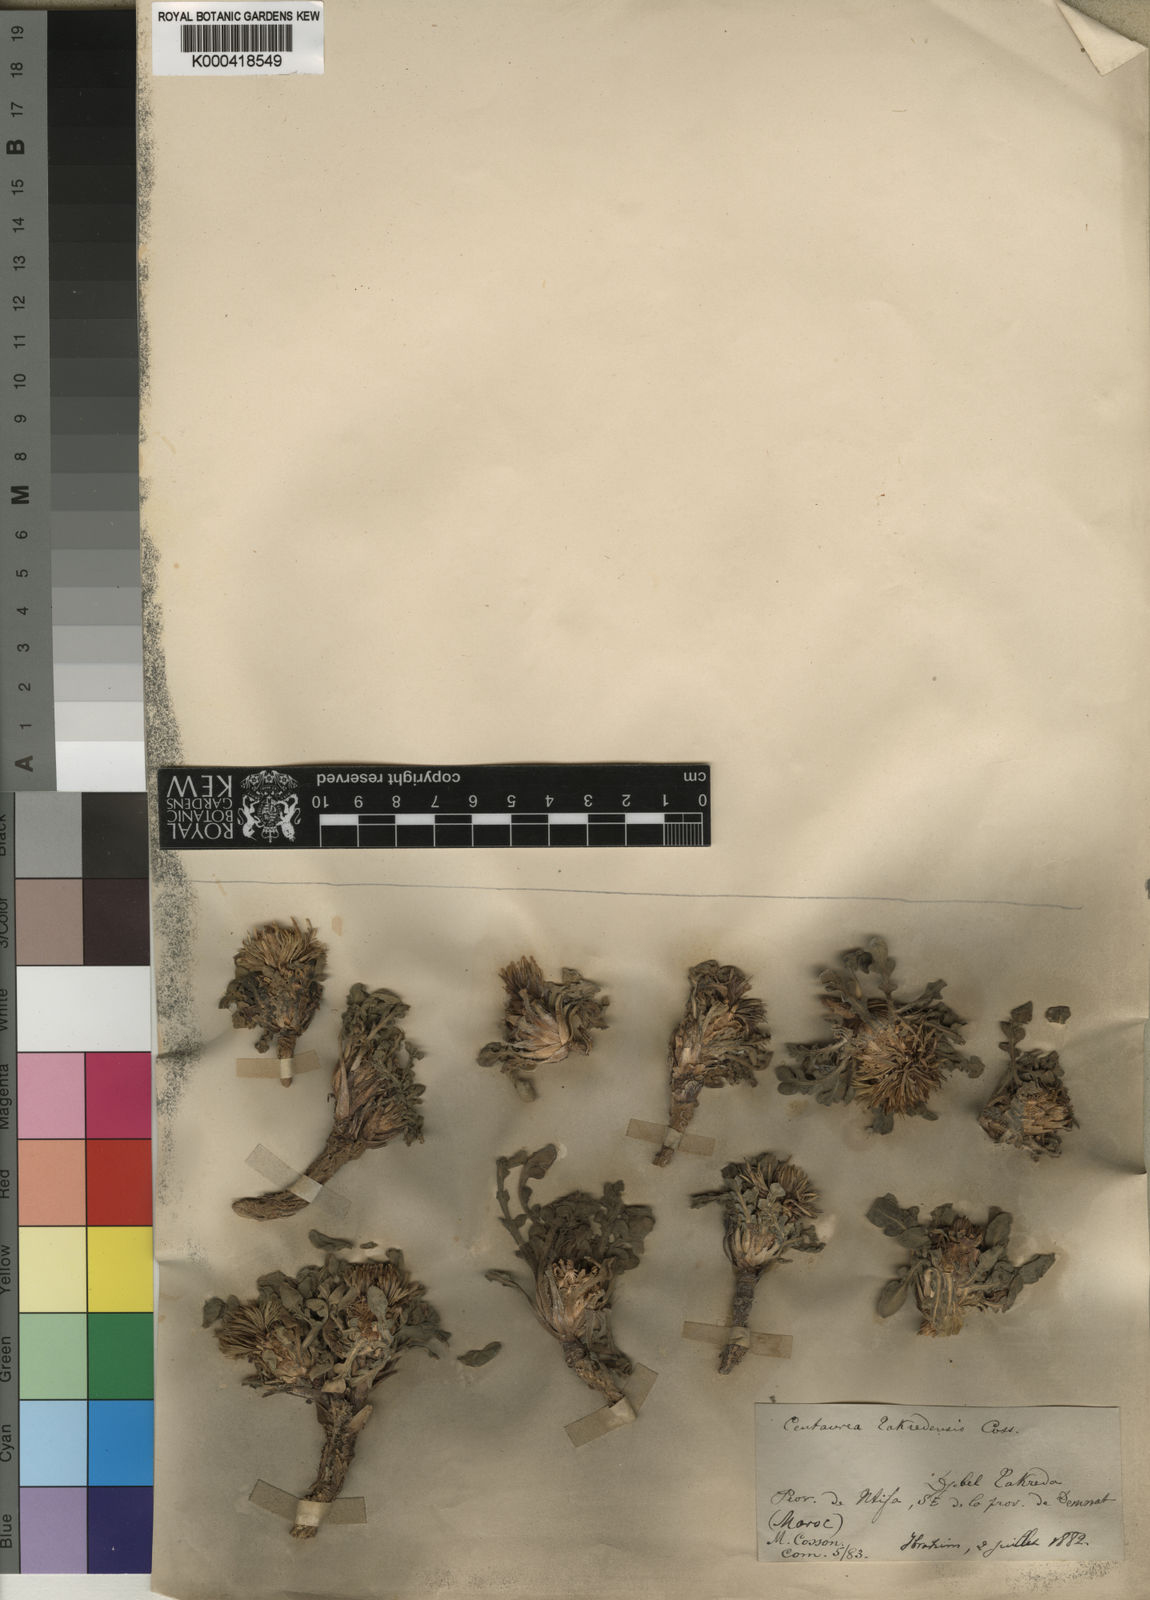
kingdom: Plantae
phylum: Tracheophyta
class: Magnoliopsida
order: Asterales
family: Asteraceae
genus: Centaurea
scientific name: Centaurea takredensis
